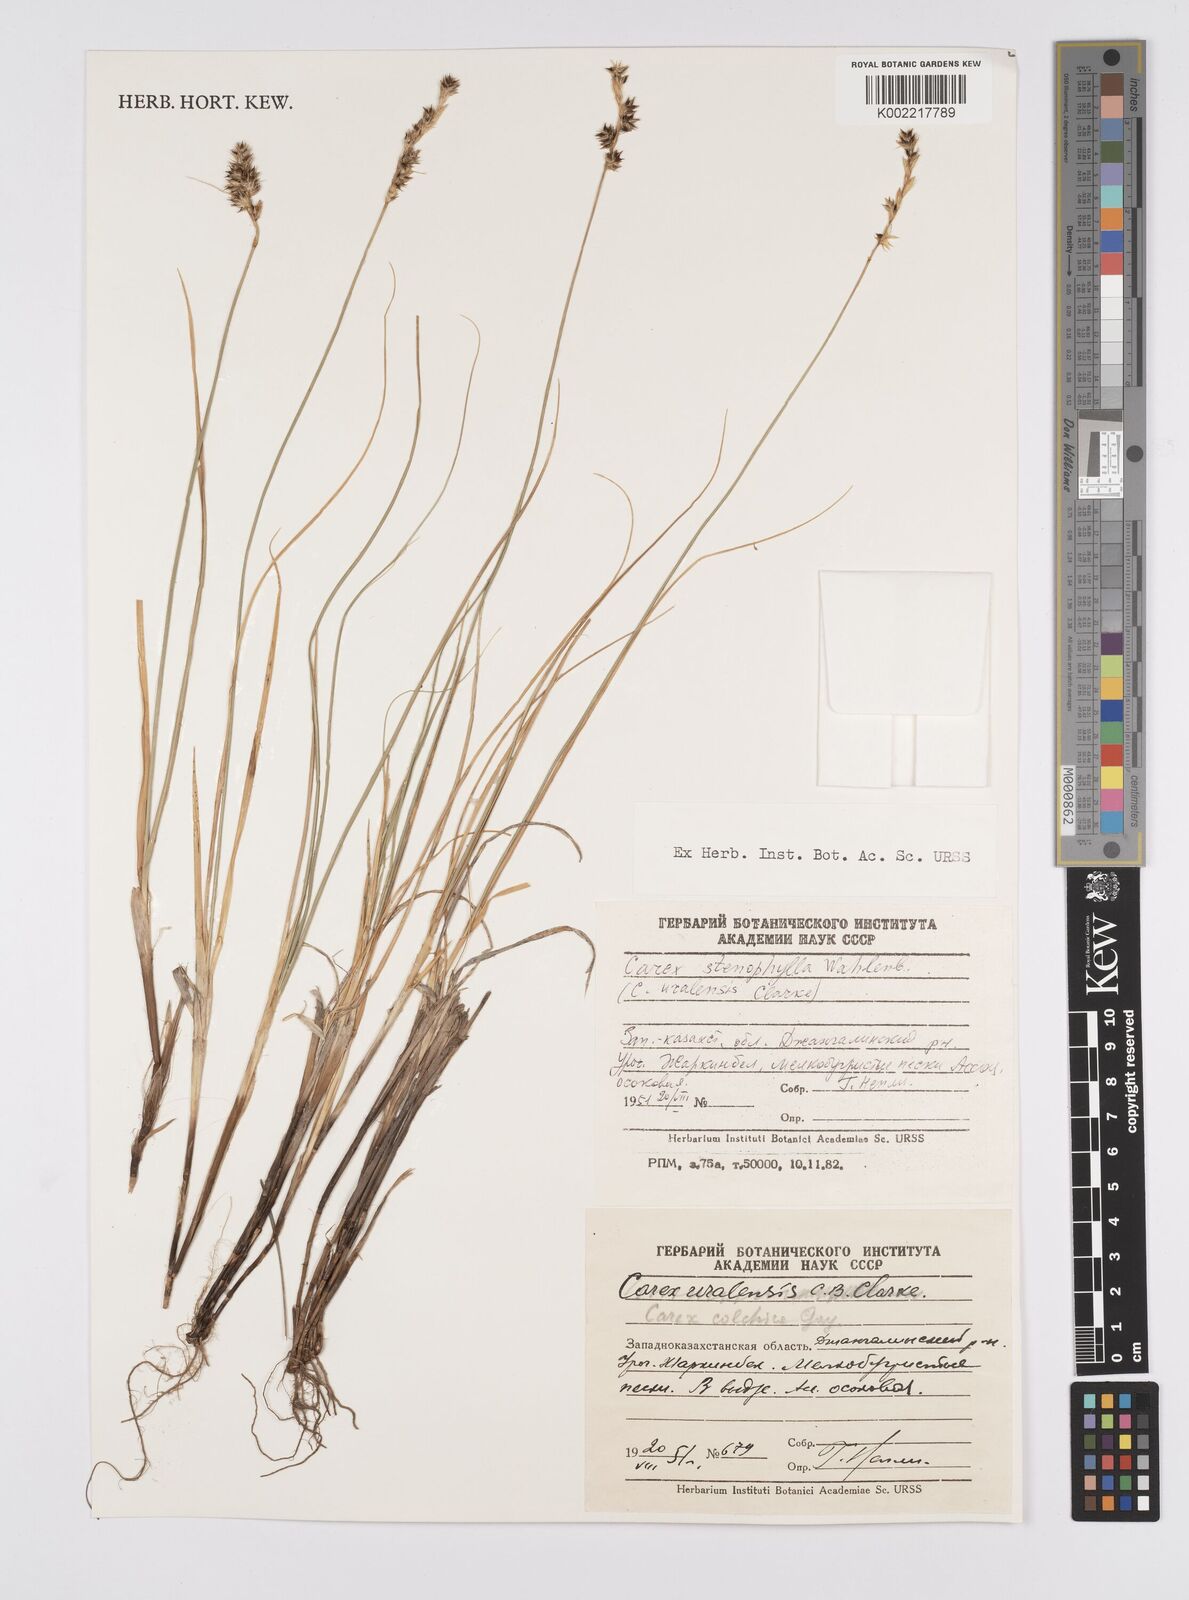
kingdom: Plantae
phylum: Tracheophyta
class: Liliopsida
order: Poales
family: Cyperaceae
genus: Carex
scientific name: Carex stenophylla
